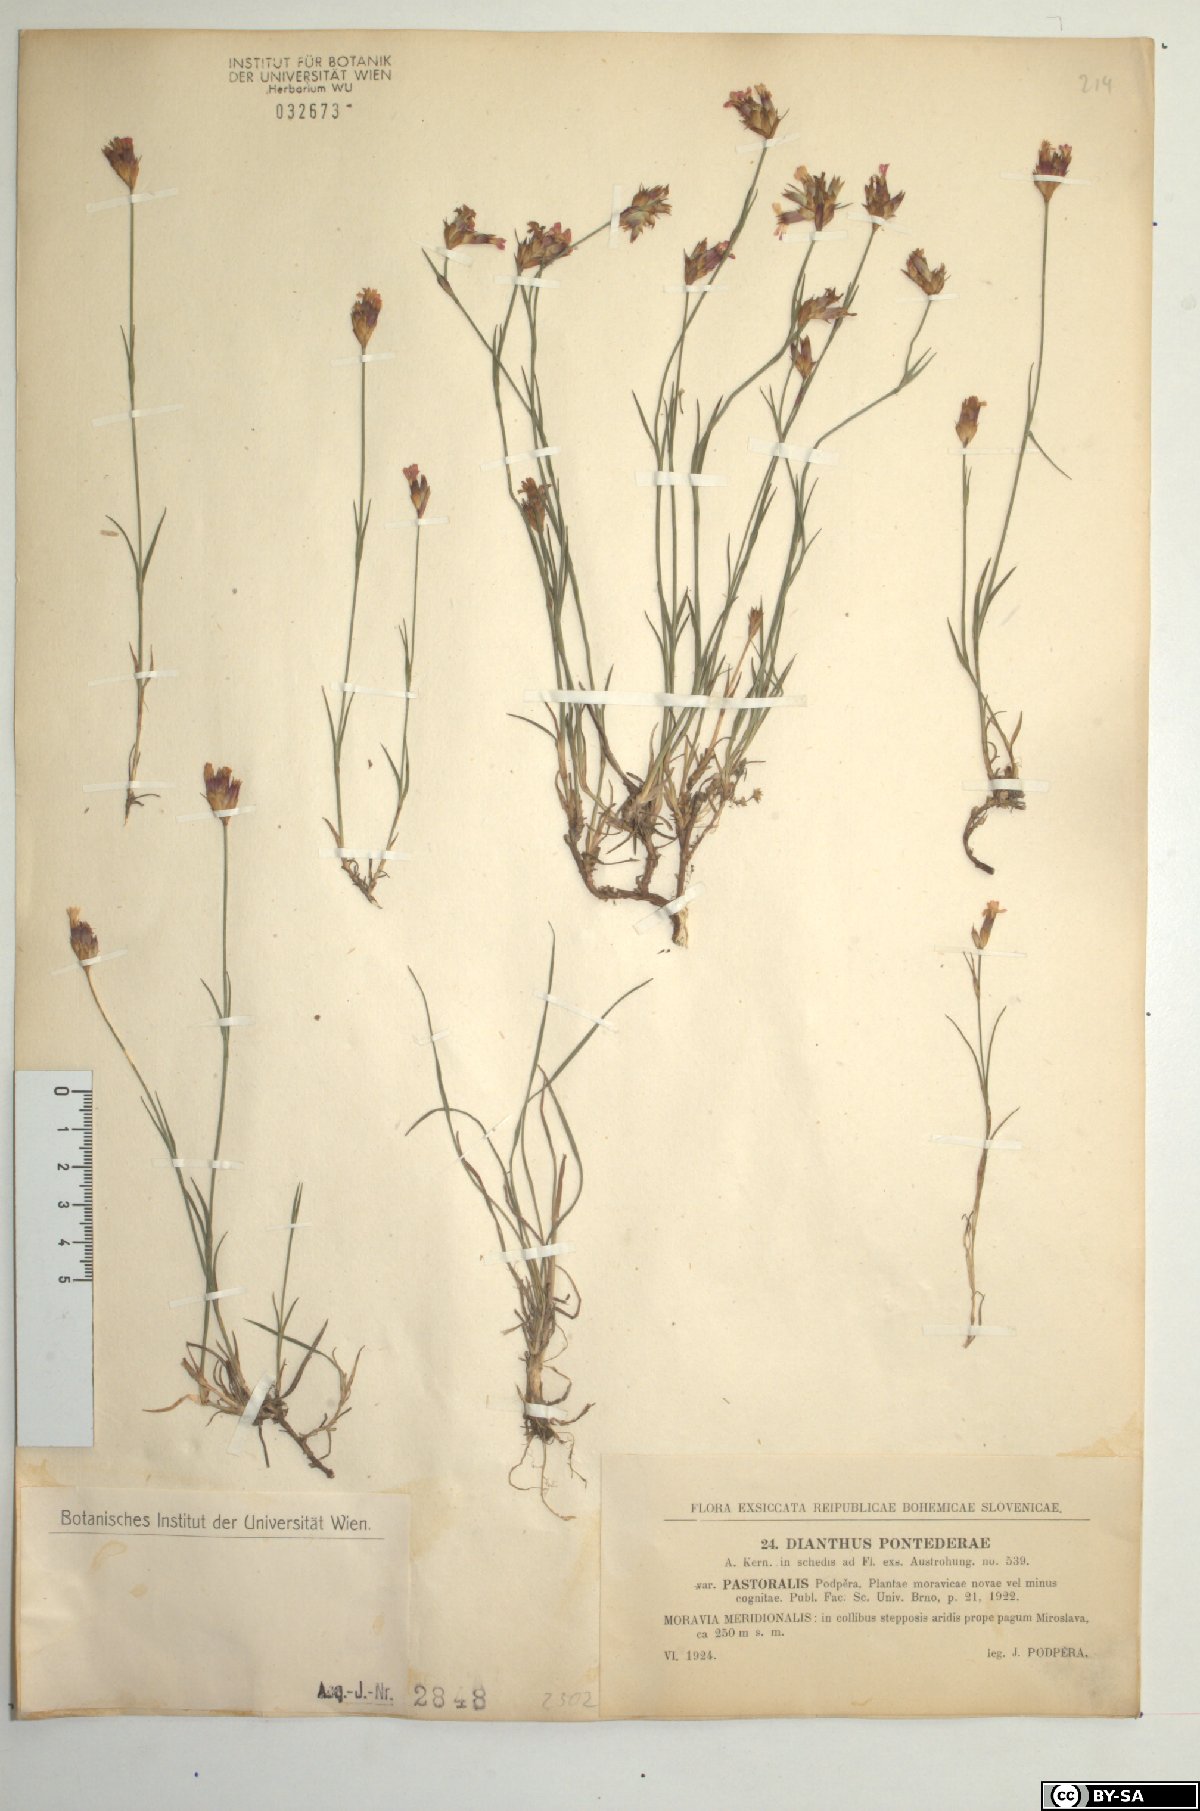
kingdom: Plantae
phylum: Tracheophyta
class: Magnoliopsida
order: Caryophyllales
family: Caryophyllaceae
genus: Dianthus
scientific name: Dianthus pontederae
